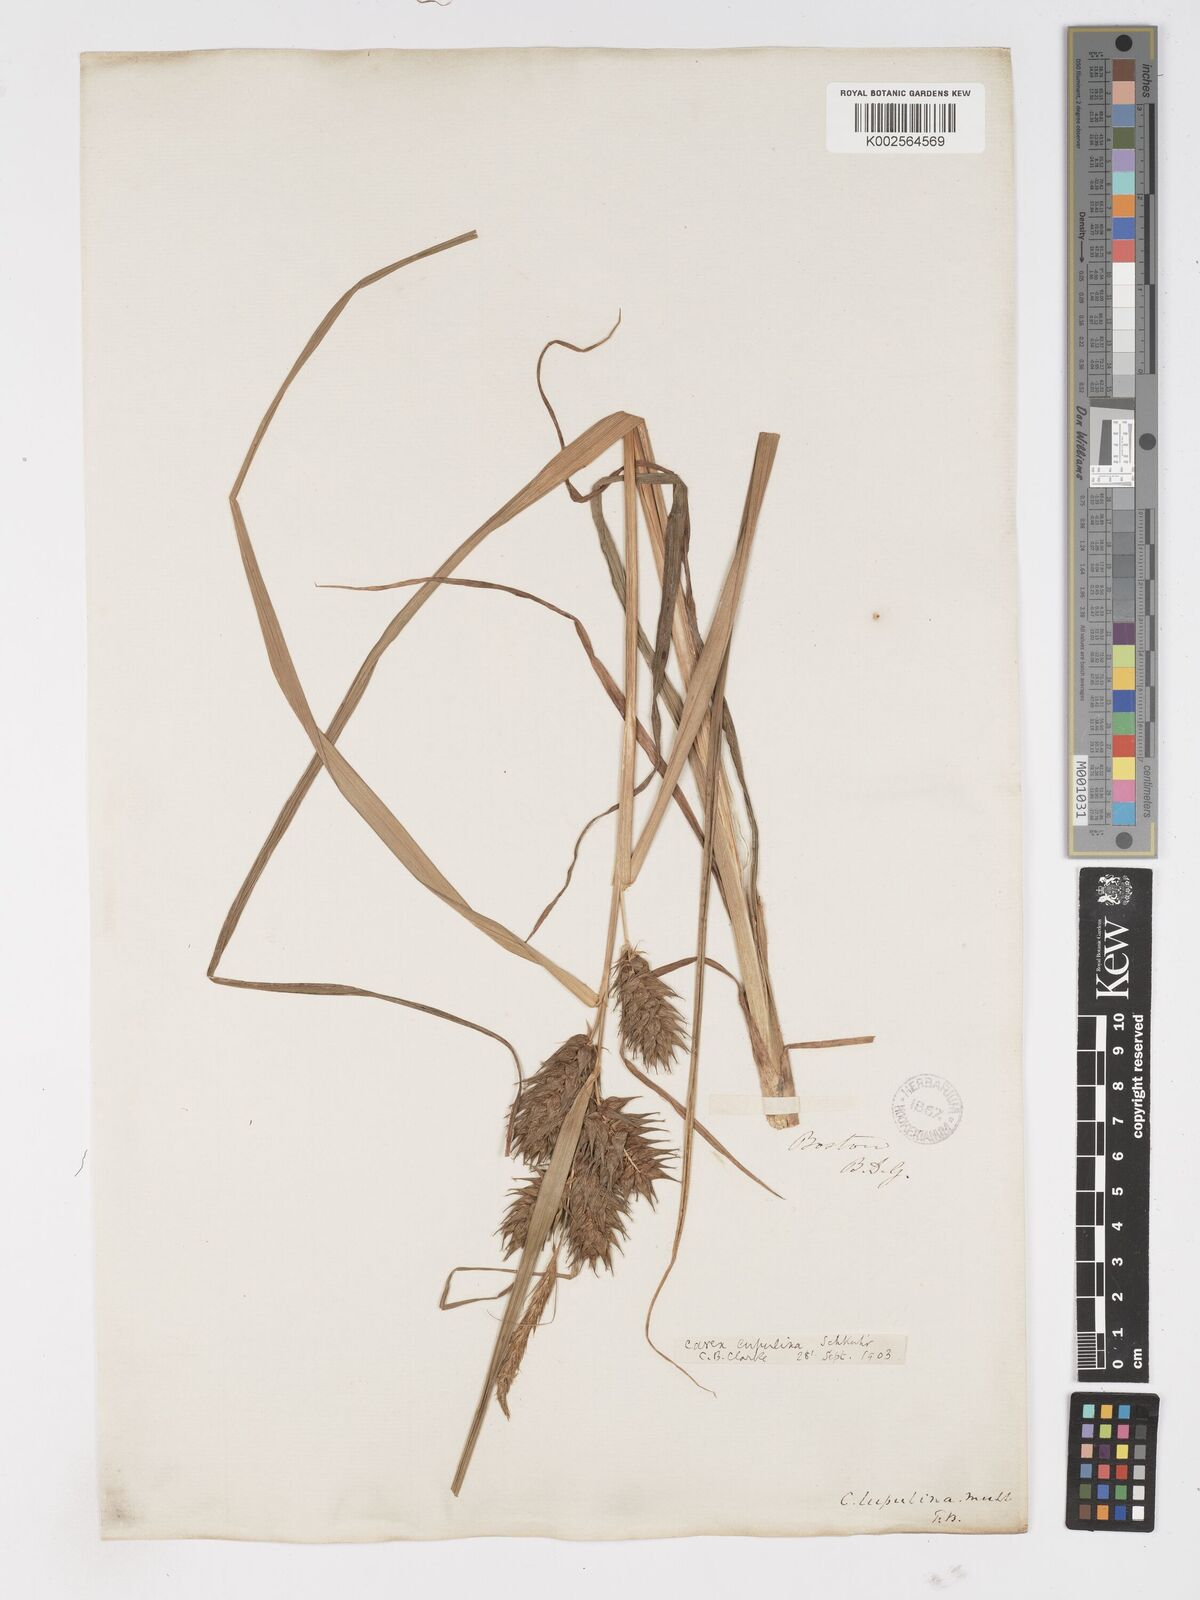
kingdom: Plantae
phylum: Tracheophyta
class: Liliopsida
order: Poales
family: Cyperaceae
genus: Carex
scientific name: Carex lupulina
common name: Hop sedge
